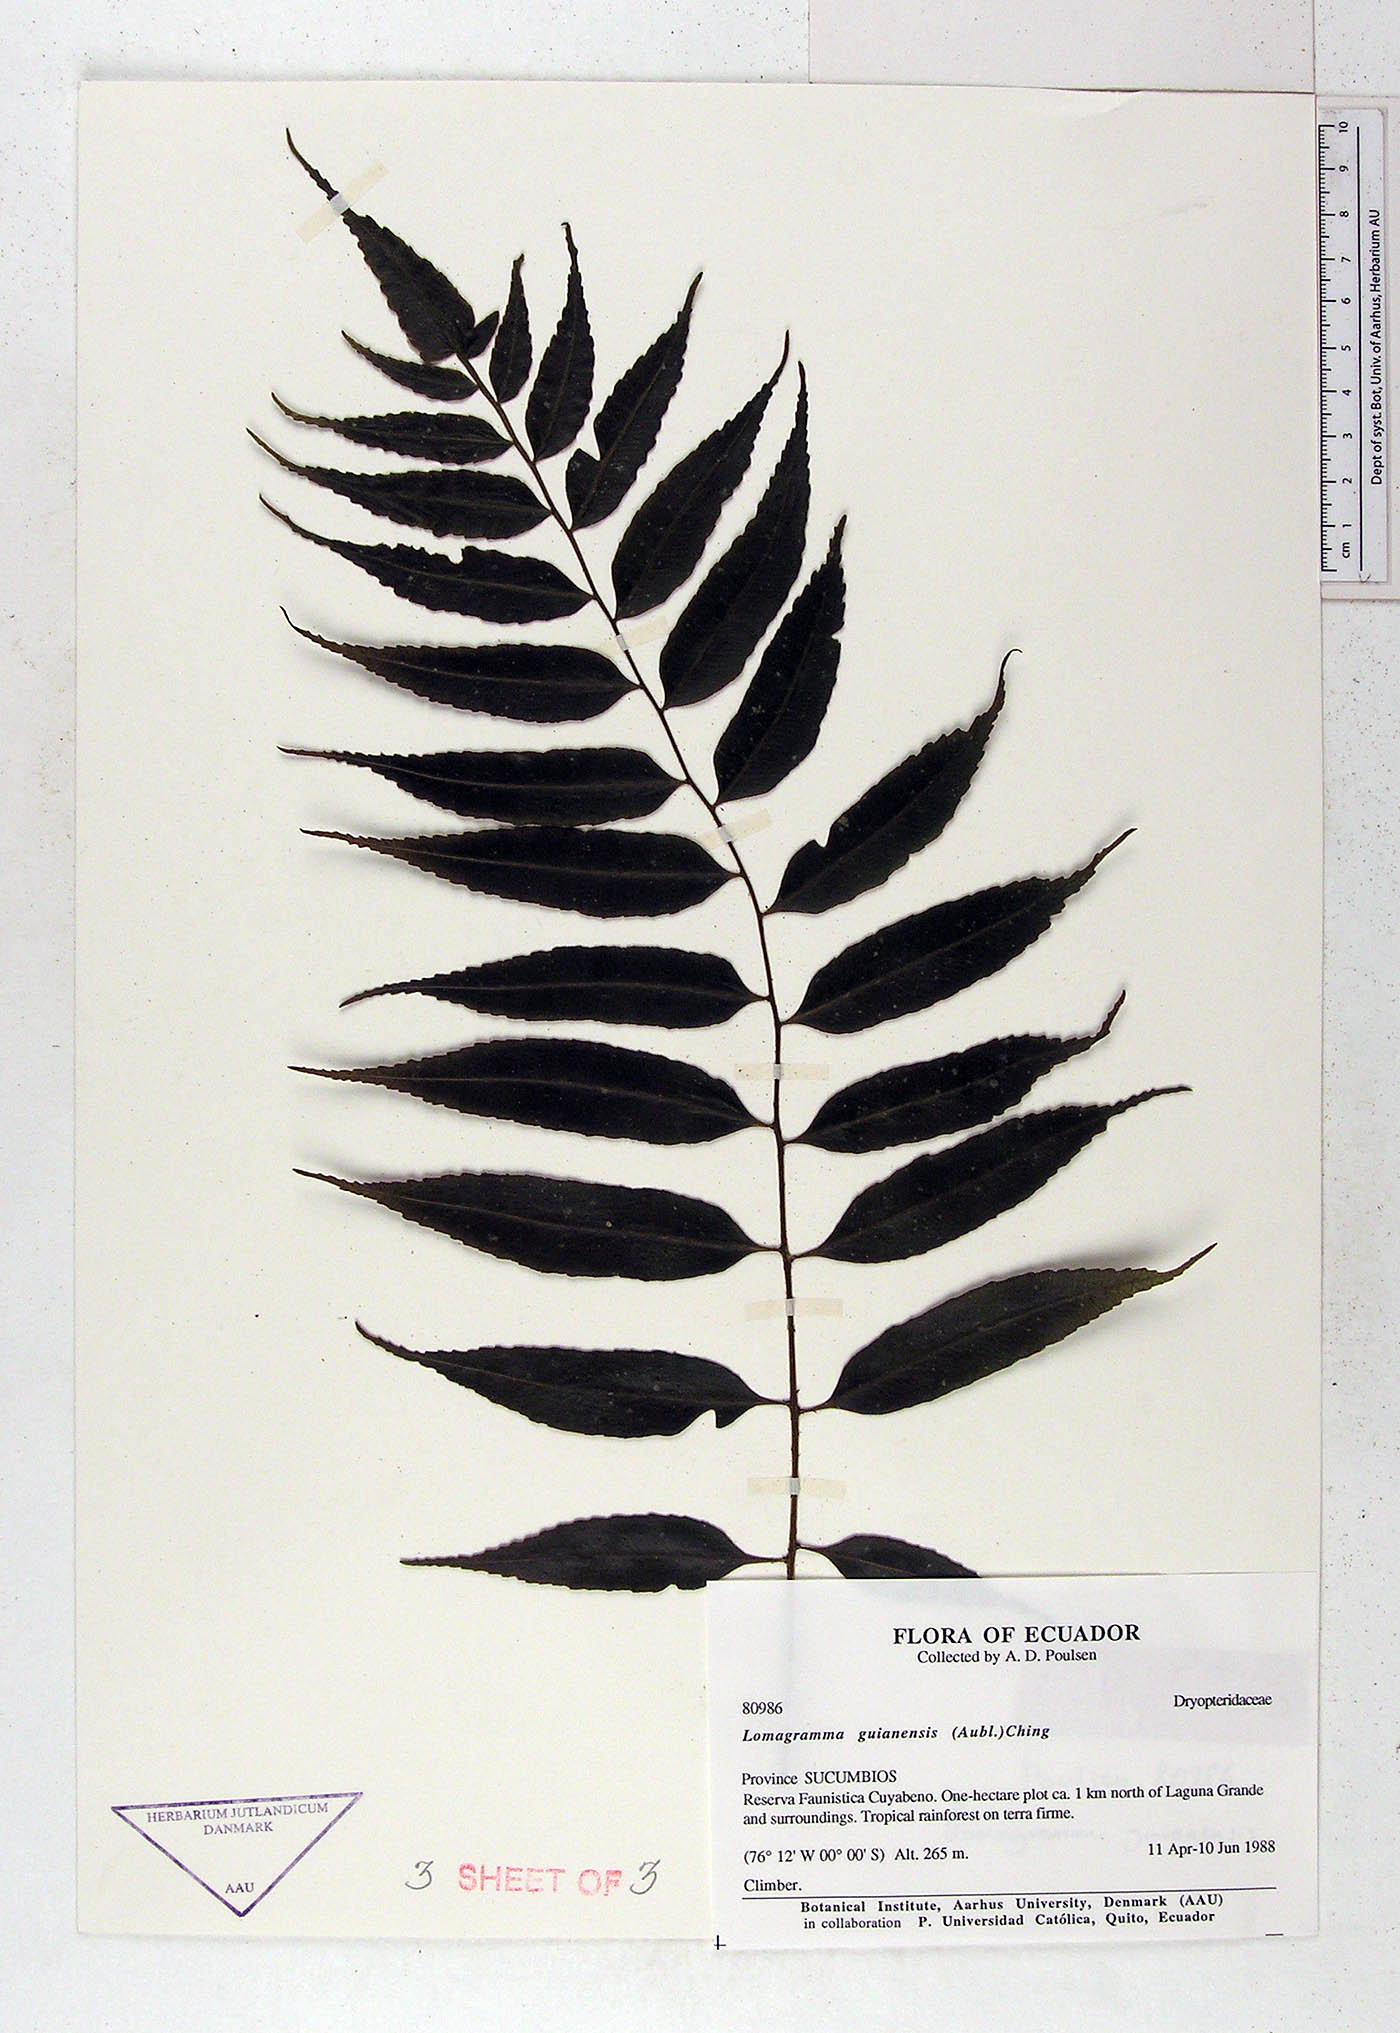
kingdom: Plantae
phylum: Tracheophyta
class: Polypodiopsida
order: Polypodiales
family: Dryopteridaceae
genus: Mickelia
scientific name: Mickelia guianensis
